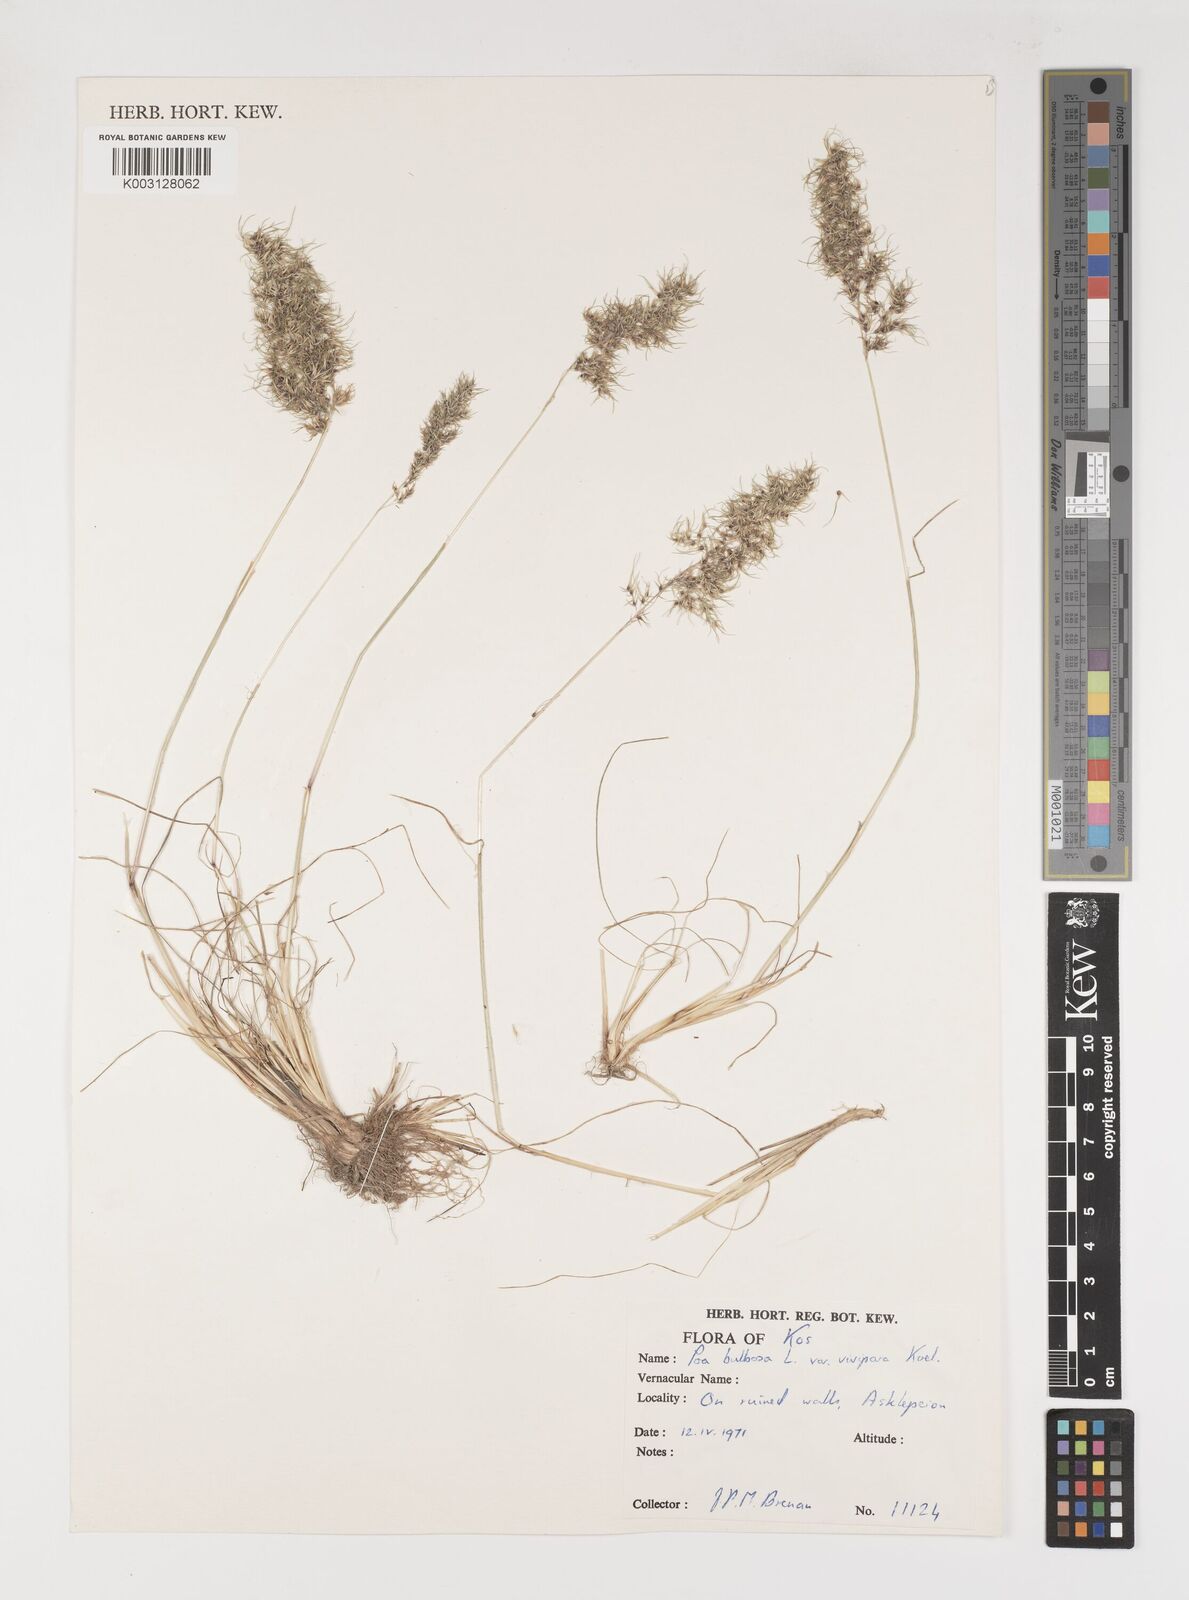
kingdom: Plantae
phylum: Tracheophyta
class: Liliopsida
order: Poales
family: Poaceae
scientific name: Poaceae
